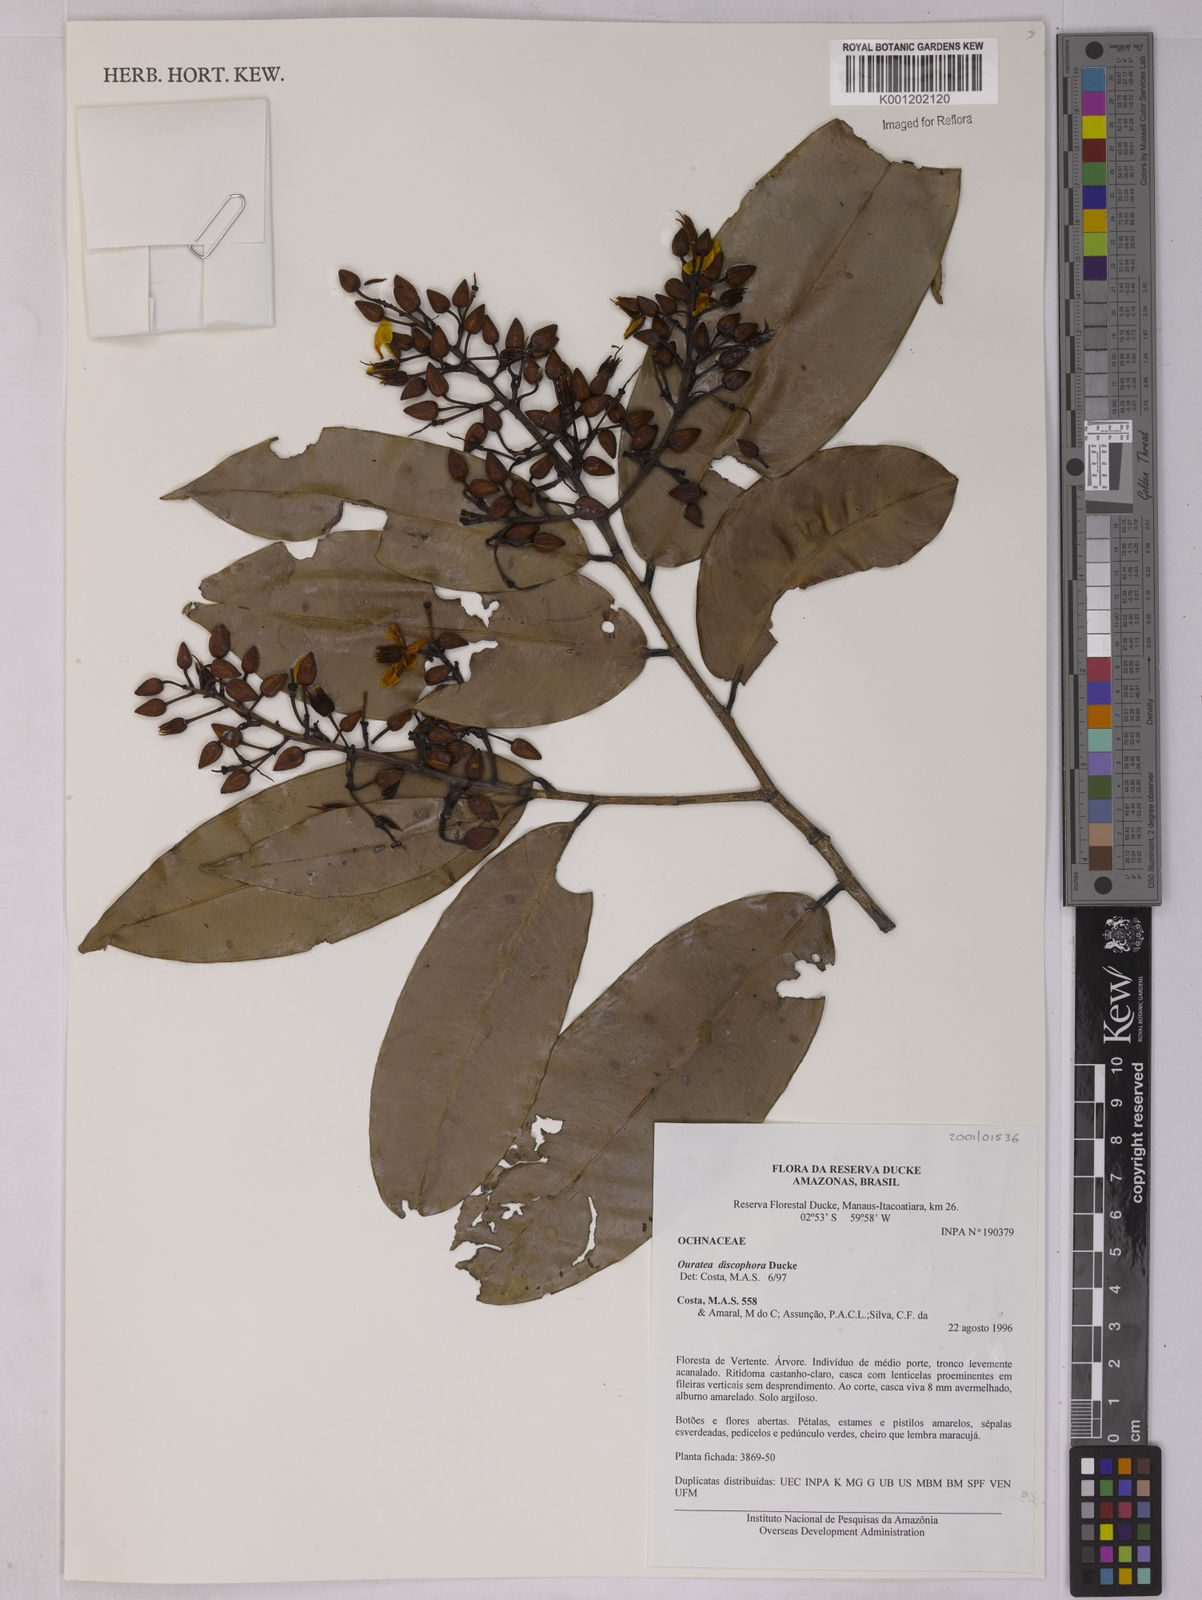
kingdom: Plantae
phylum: Tracheophyta
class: Magnoliopsida
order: Malpighiales
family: Ochnaceae
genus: Ouratea
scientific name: Ouratea discophora
